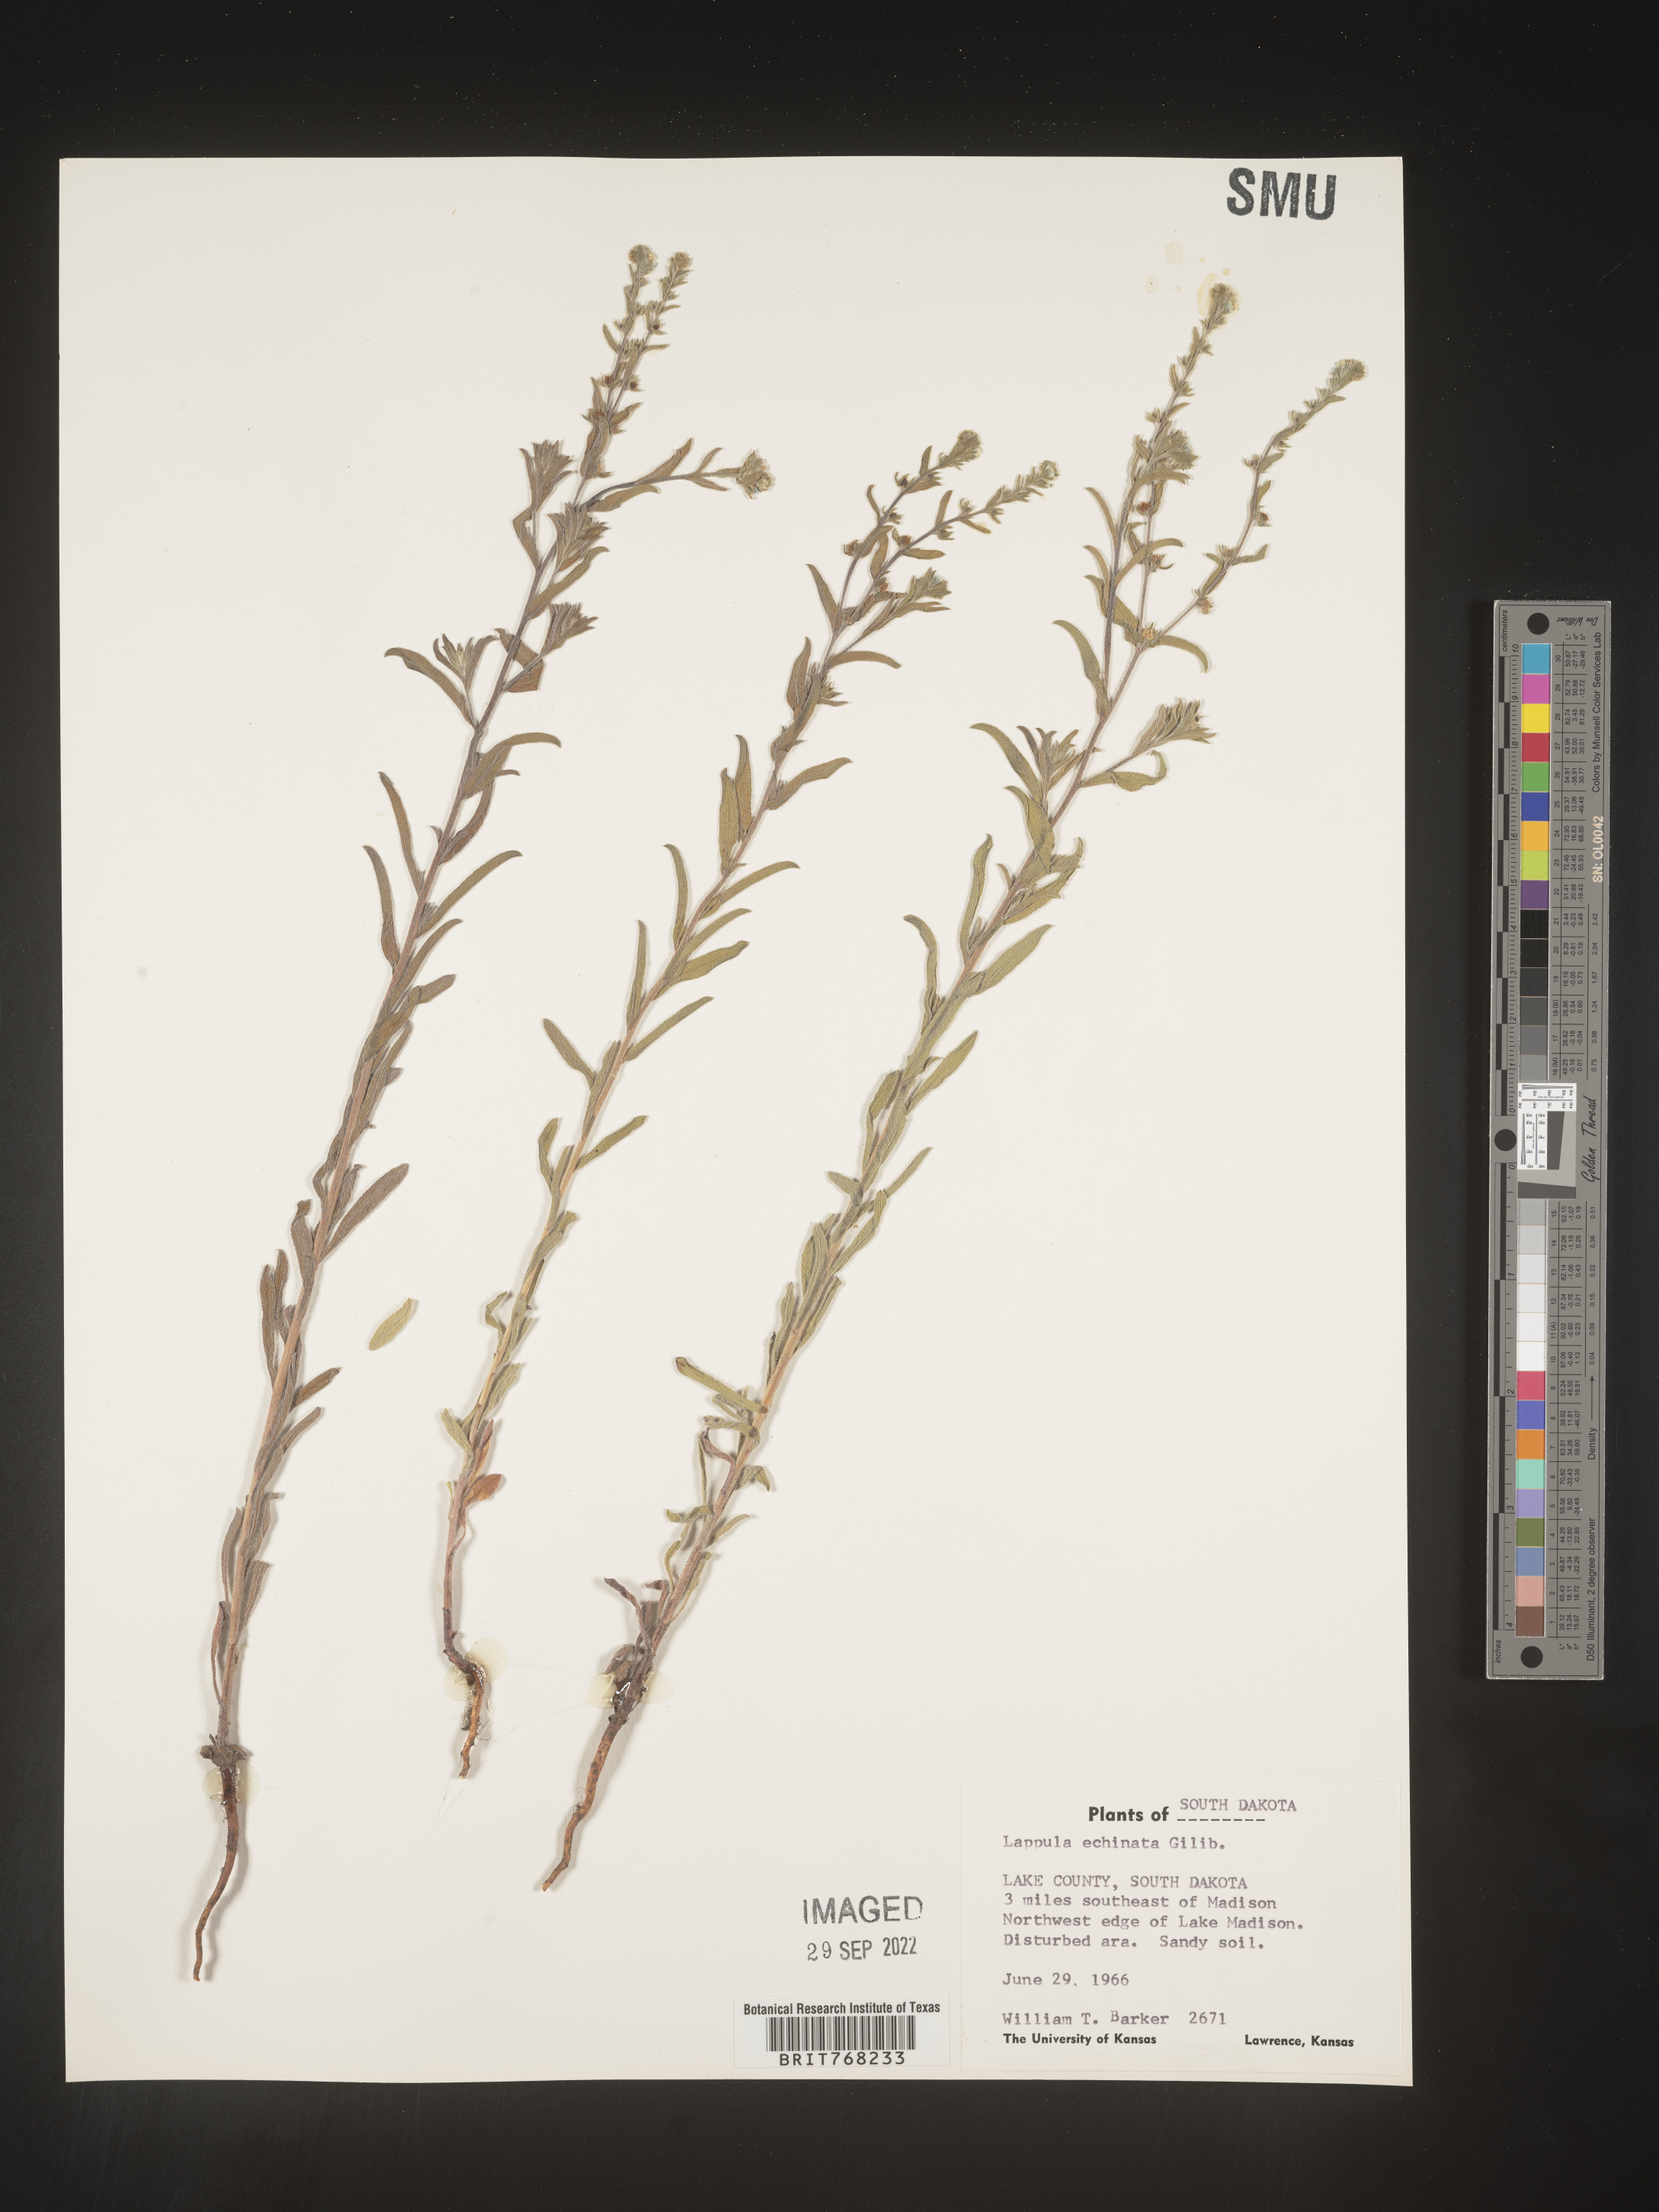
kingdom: Plantae
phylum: Tracheophyta
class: Magnoliopsida
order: Boraginales
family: Boraginaceae
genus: Lappula
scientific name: Lappula
